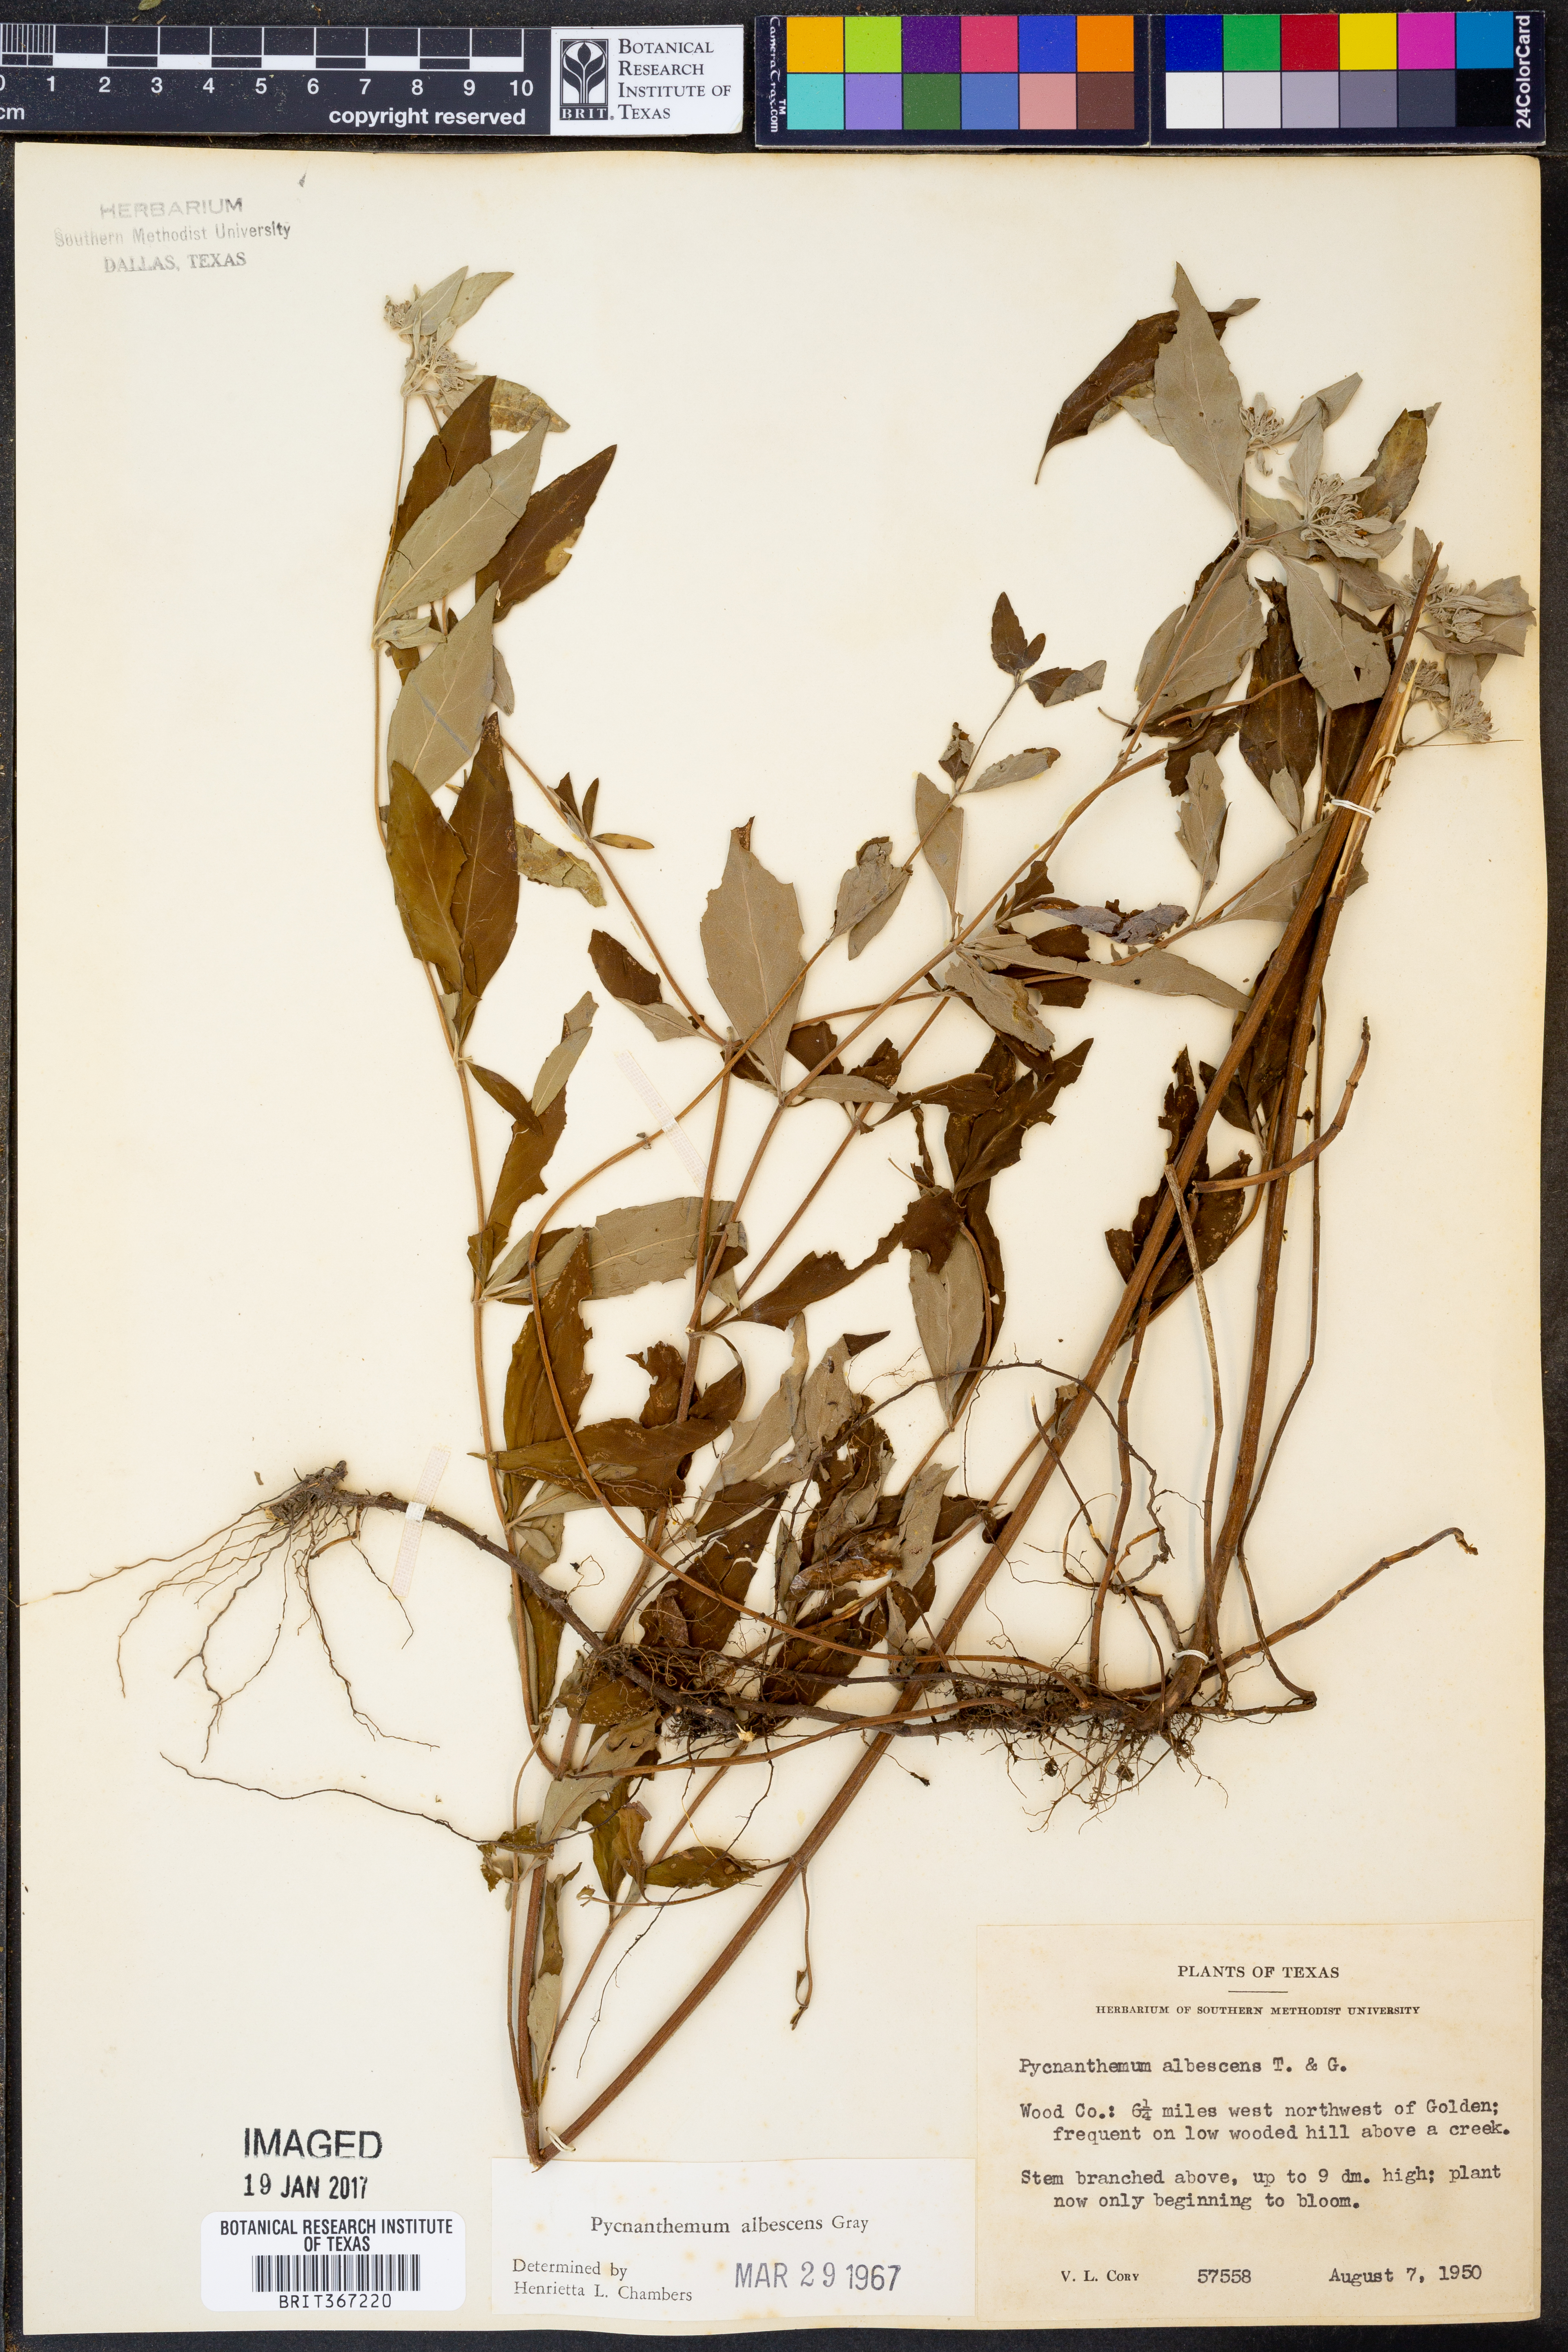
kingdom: Plantae
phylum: Tracheophyta
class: Magnoliopsida
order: Lamiales
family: Lamiaceae
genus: Pycnanthemum
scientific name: Pycnanthemum albescens
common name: White-leaf mountain-mint
